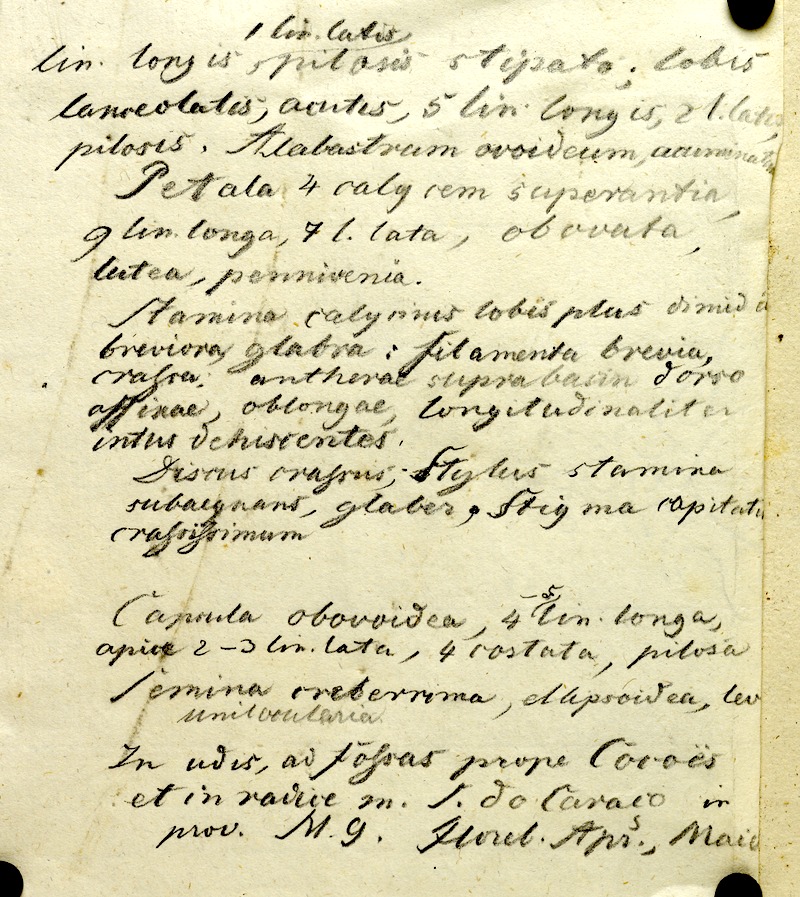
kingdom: Plantae
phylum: Tracheophyta
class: Magnoliopsida
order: Myrtales
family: Onagraceae
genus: Ludwigia
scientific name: Ludwigia irwinii
